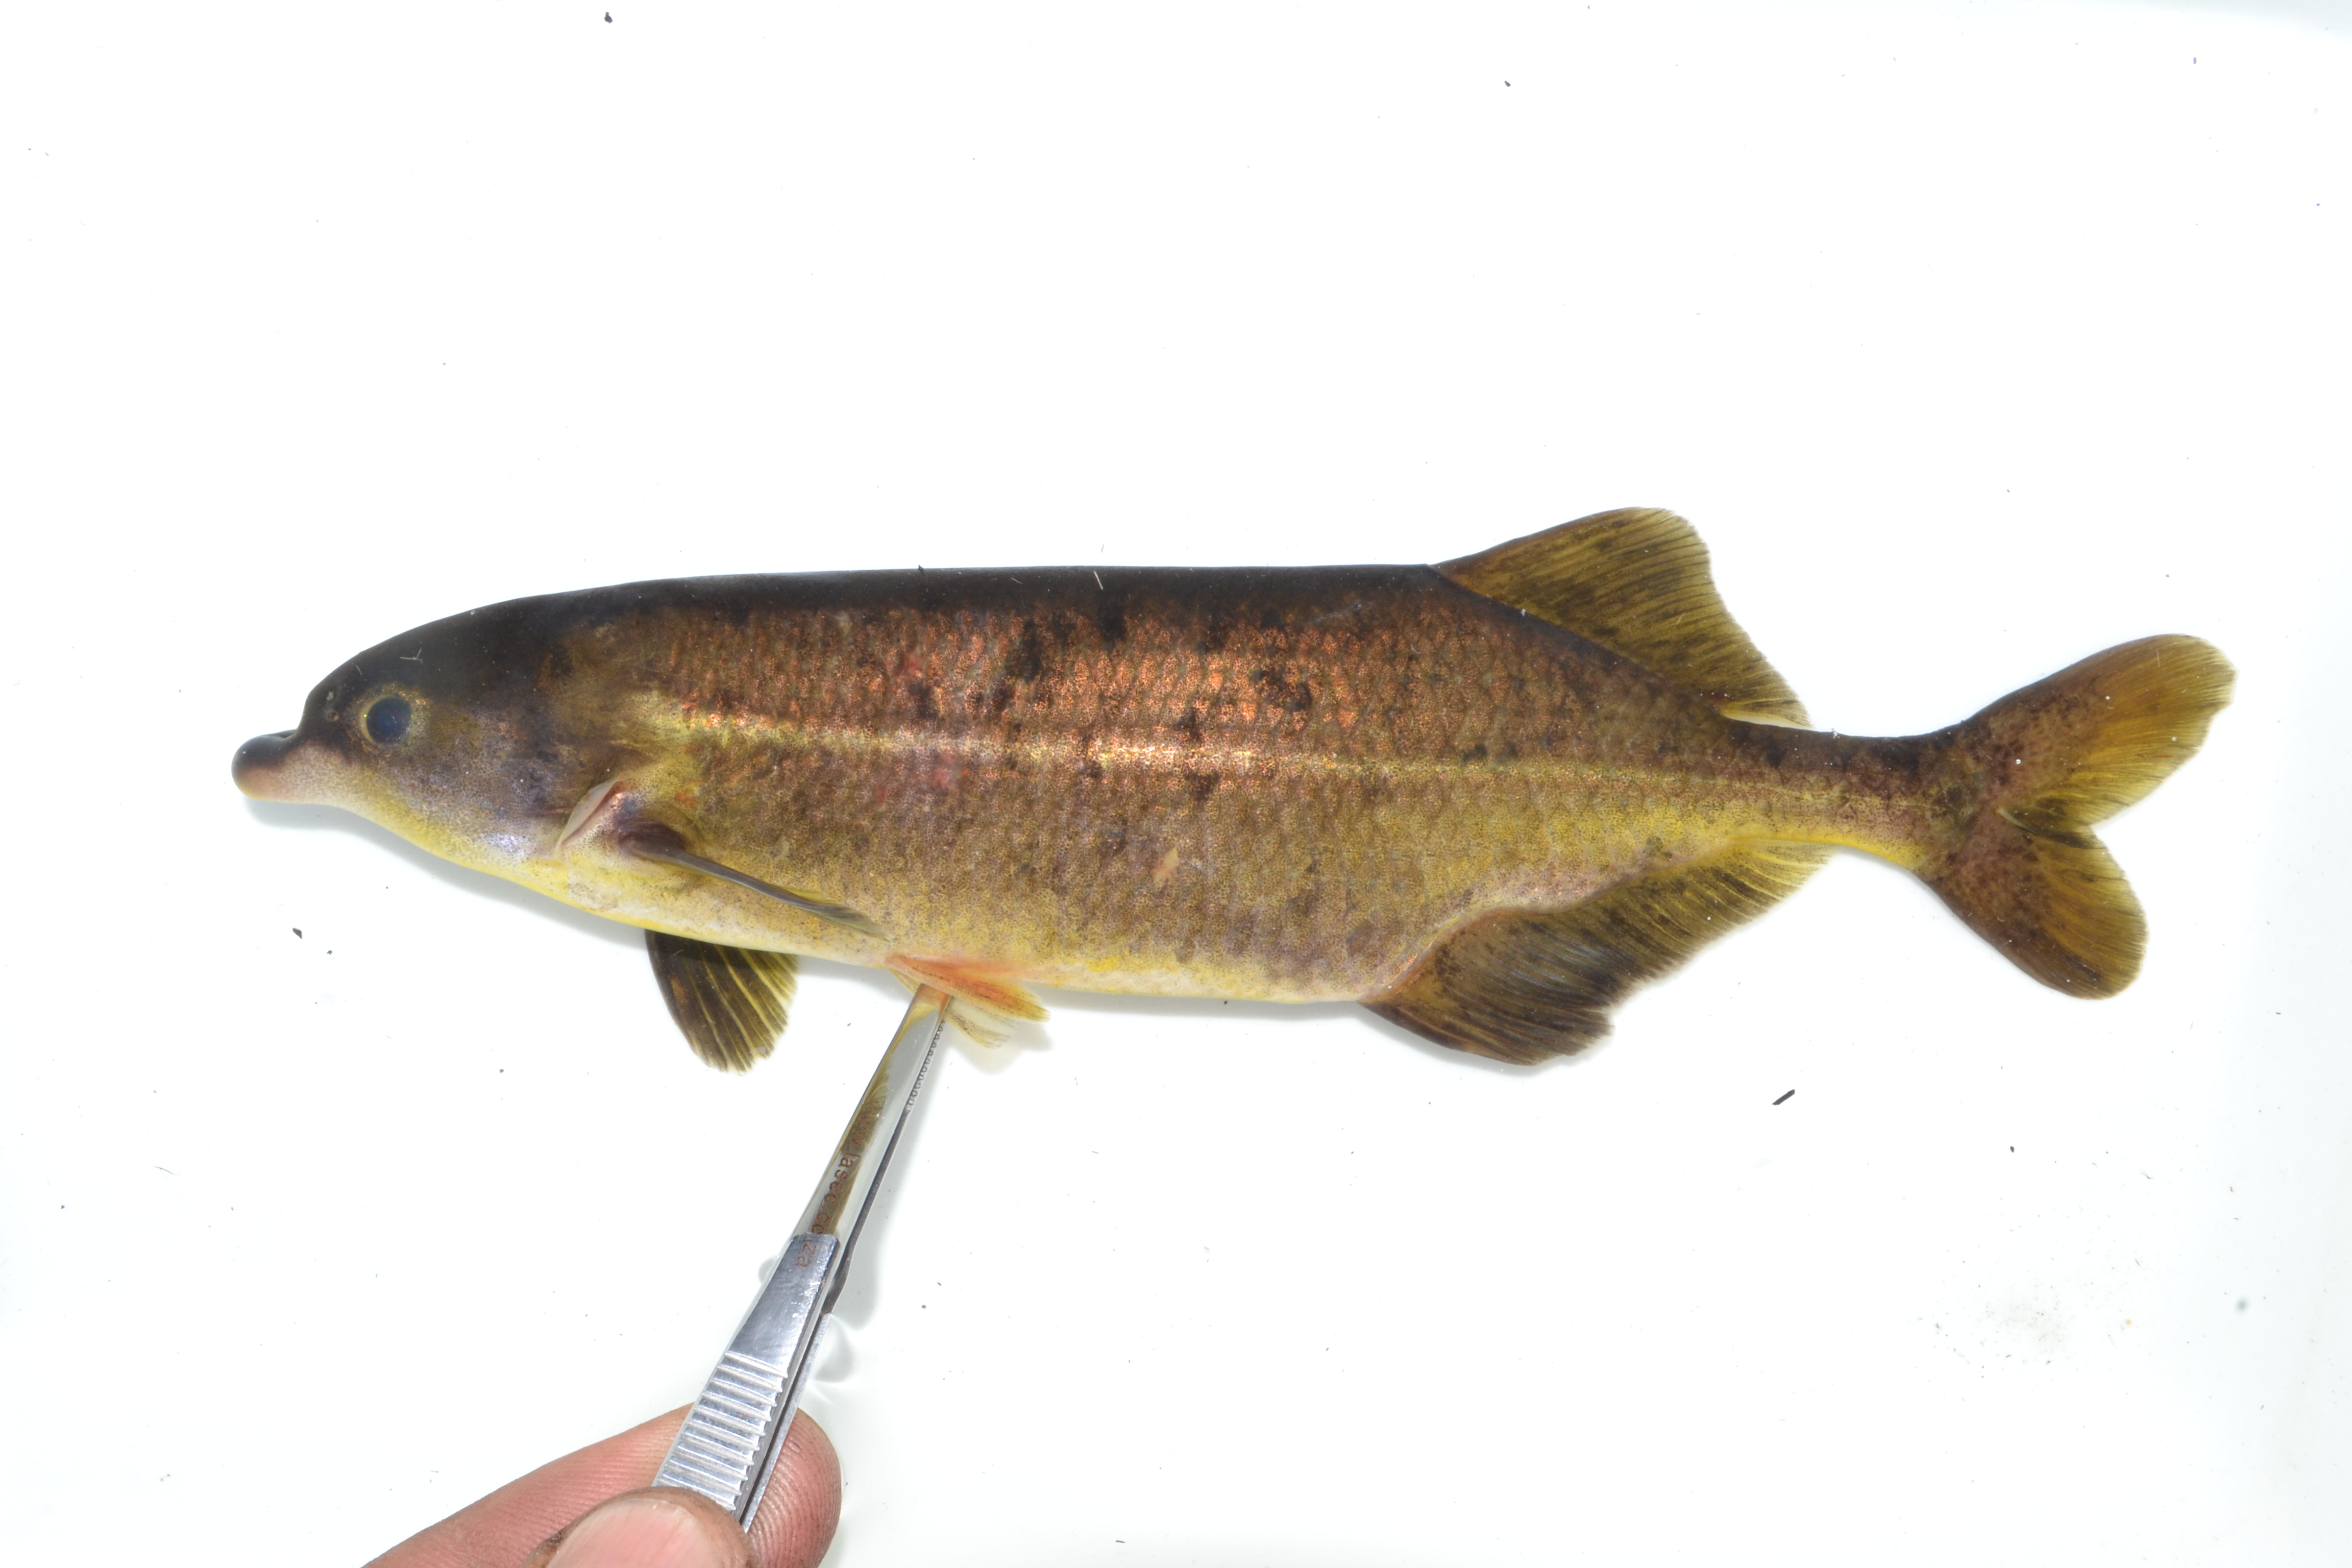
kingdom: Animalia
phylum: Chordata
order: Osteoglossiformes
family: Mormyridae
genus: Marcusenius
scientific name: Marcusenius altisambesi
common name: Bulldog
